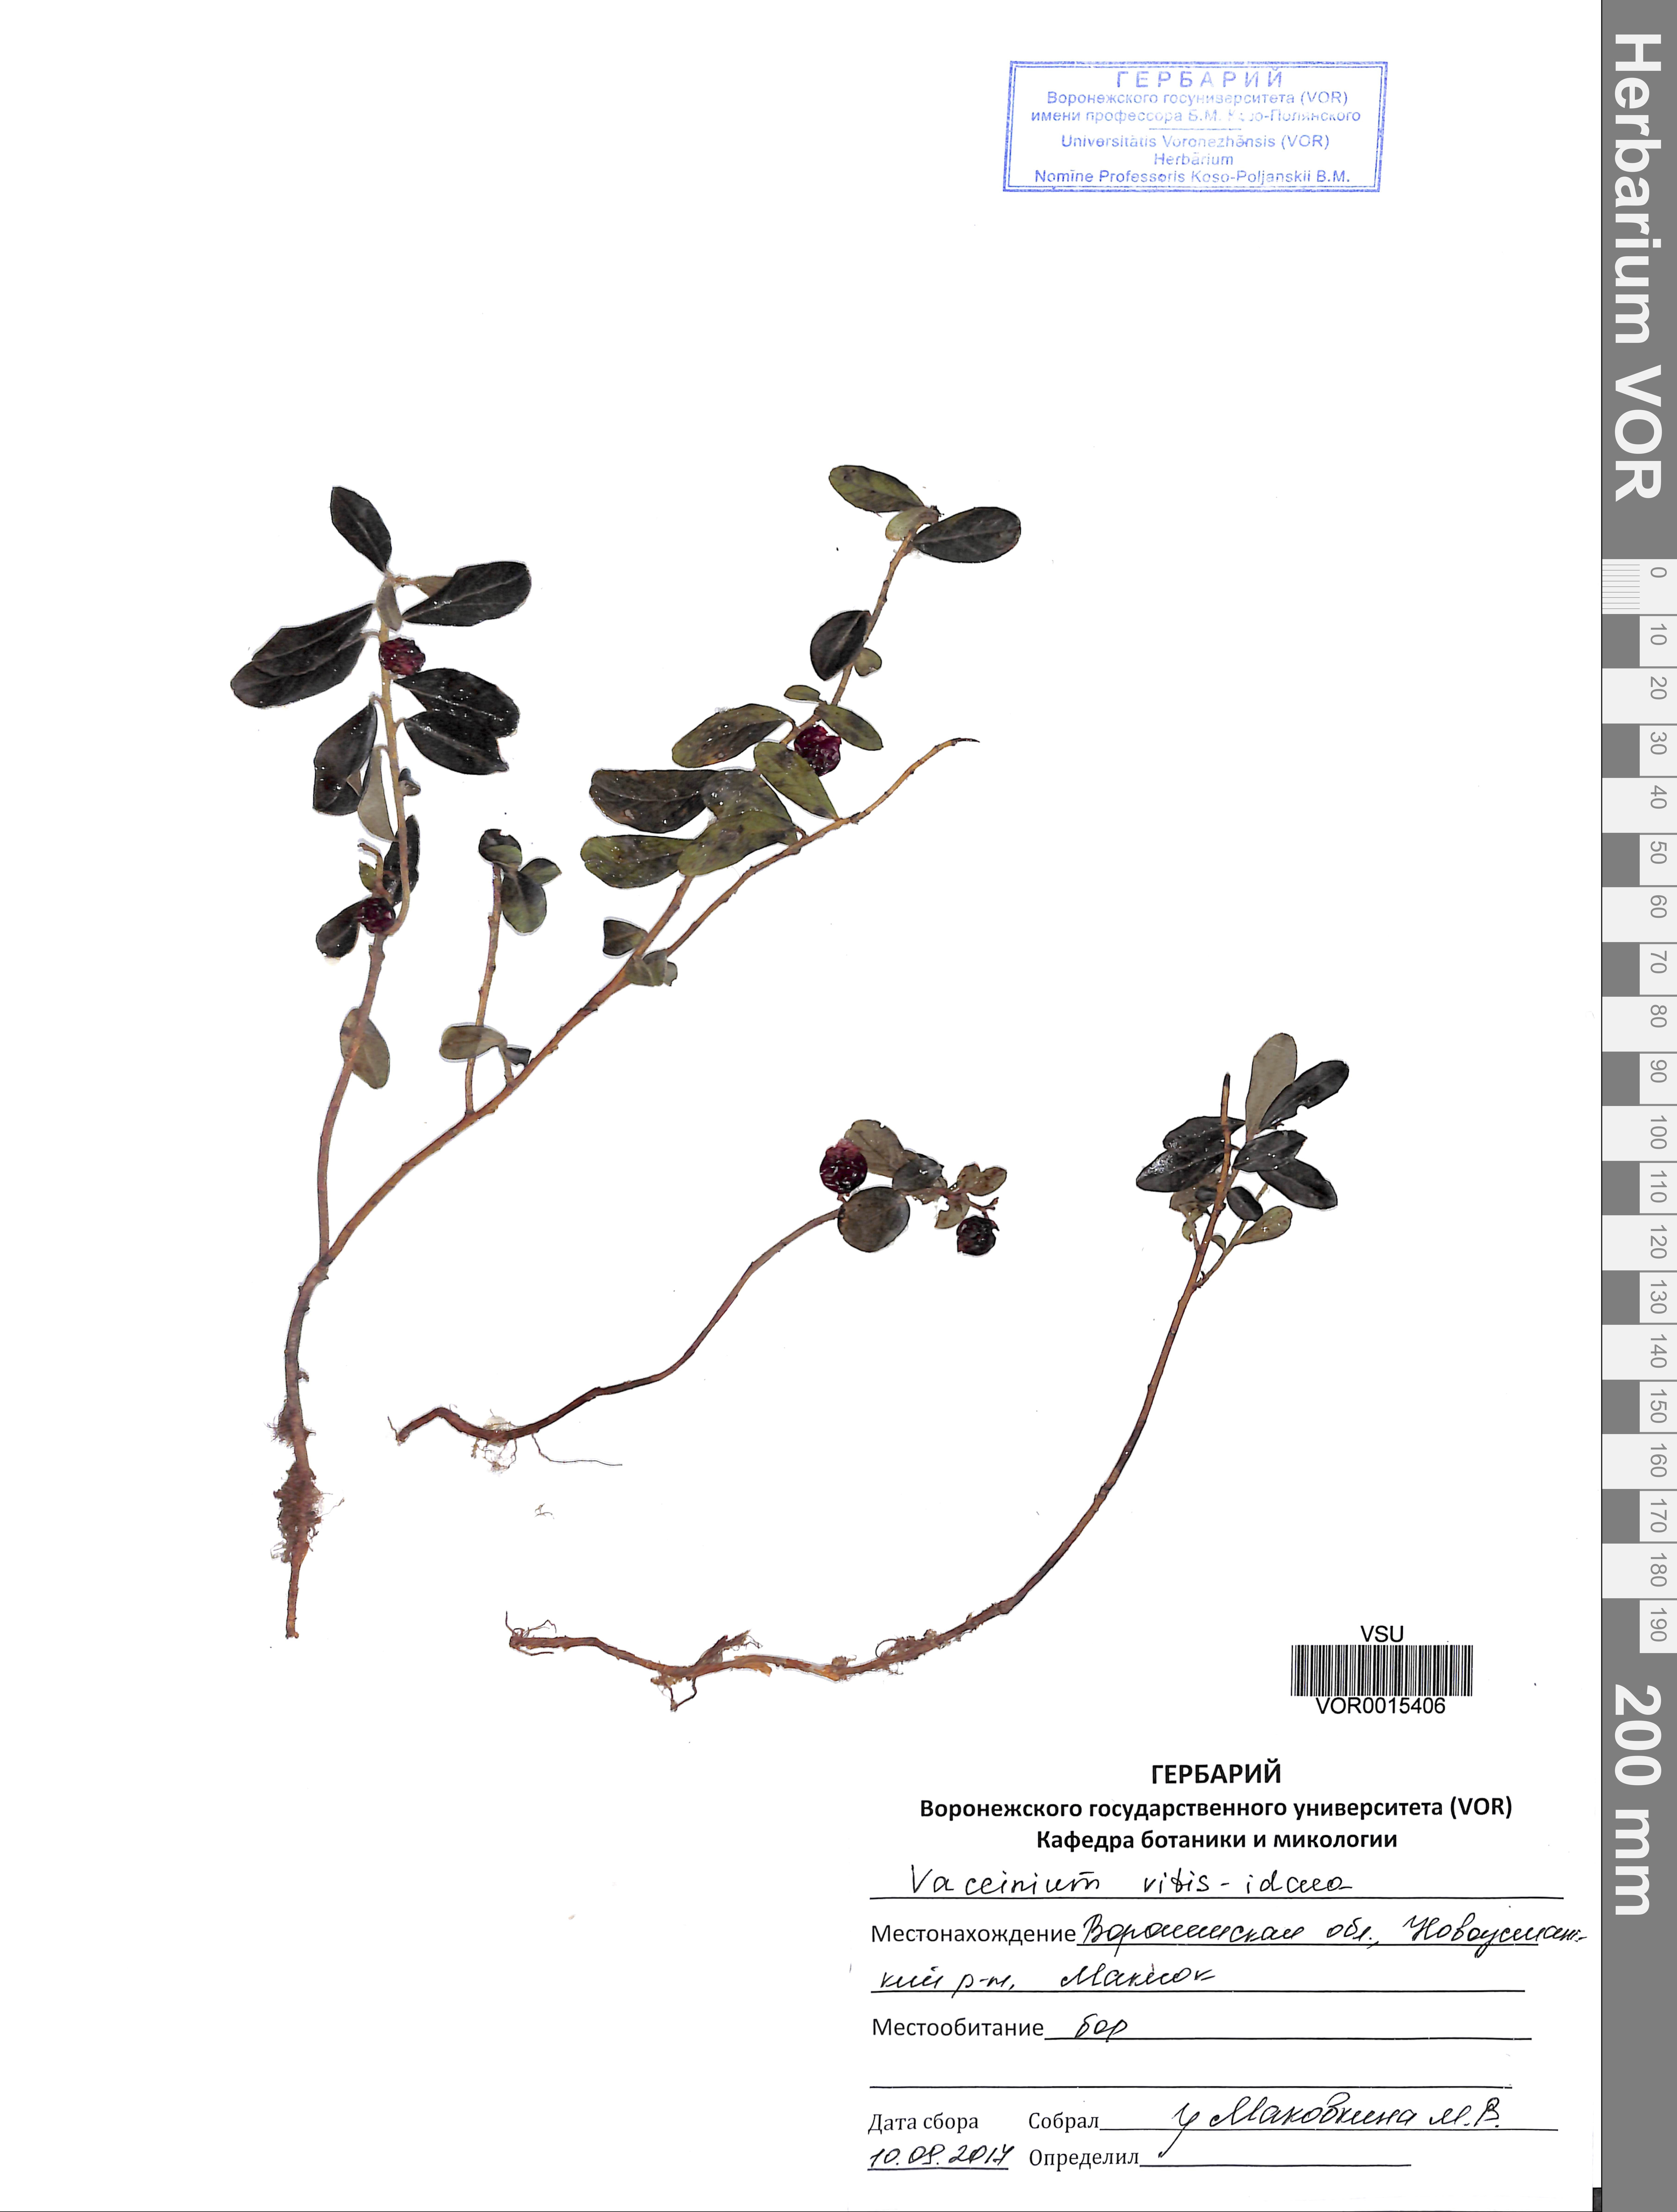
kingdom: Plantae
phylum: Tracheophyta
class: Magnoliopsida
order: Ericales
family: Ericaceae
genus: Vaccinium
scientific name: Vaccinium vitis-idaea
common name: Cowberry
